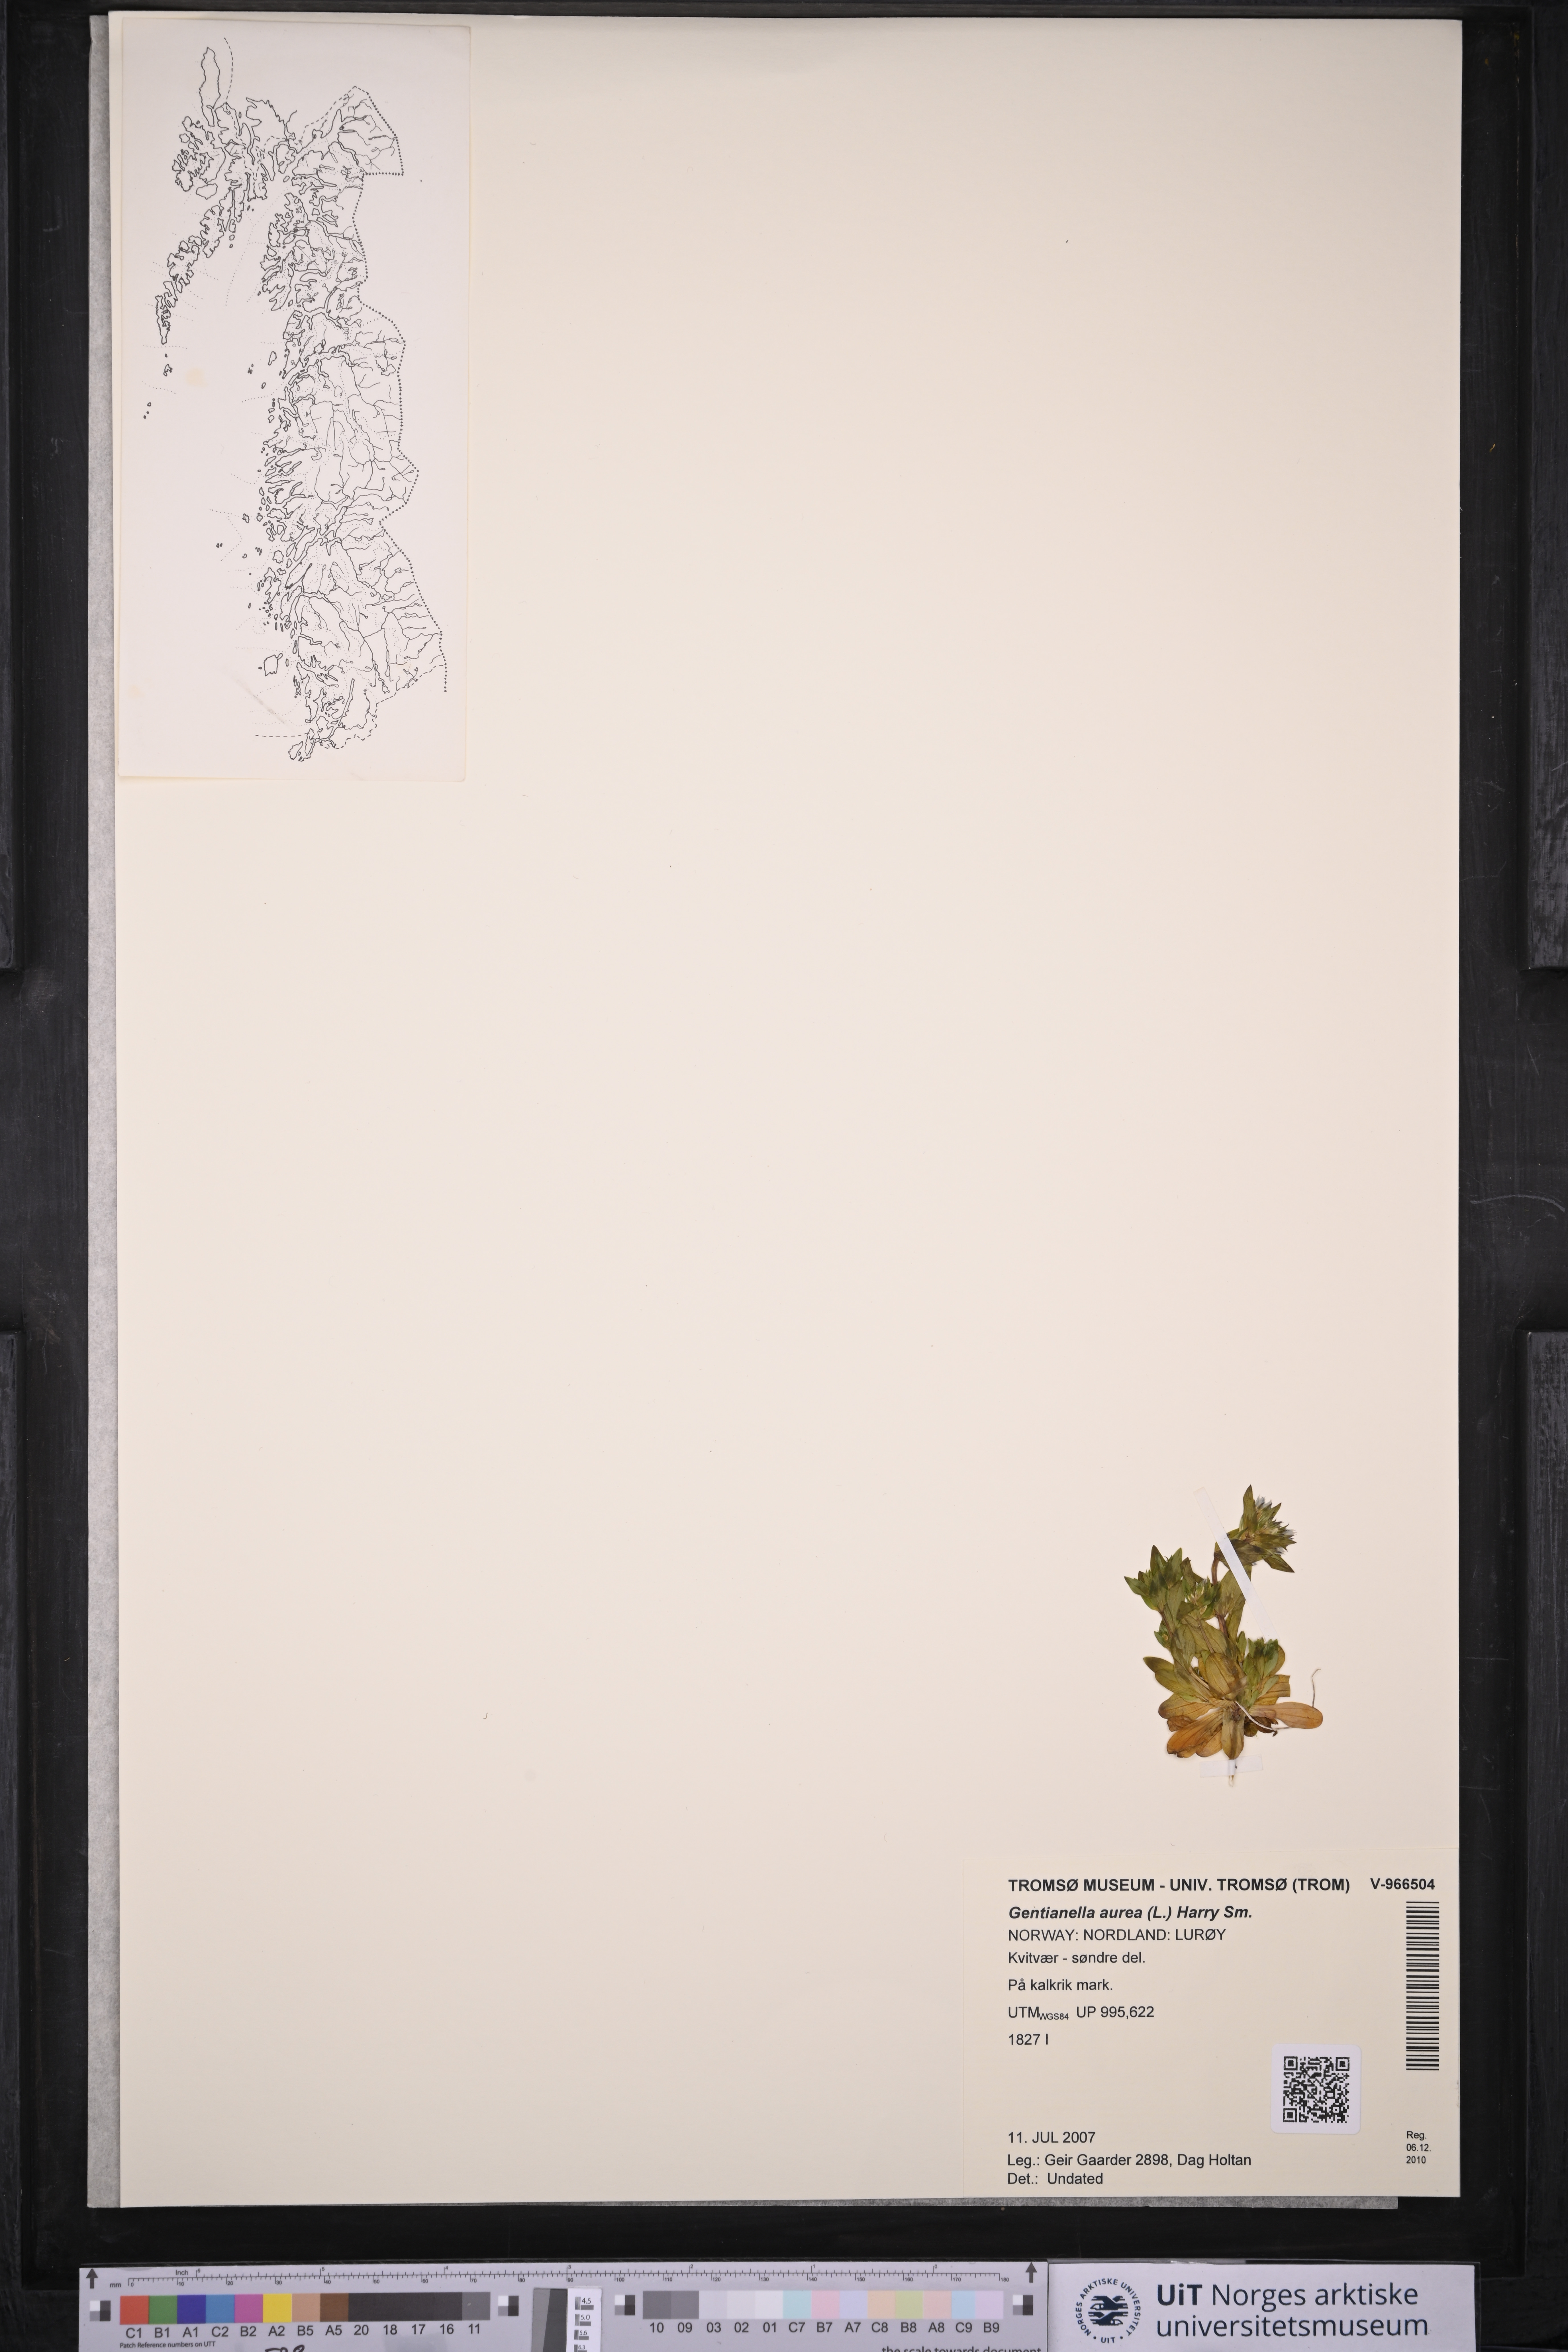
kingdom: Plantae
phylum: Tracheophyta
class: Magnoliopsida
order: Gentianales
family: Gentianaceae
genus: Gentianella
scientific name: Gentianella aurea
